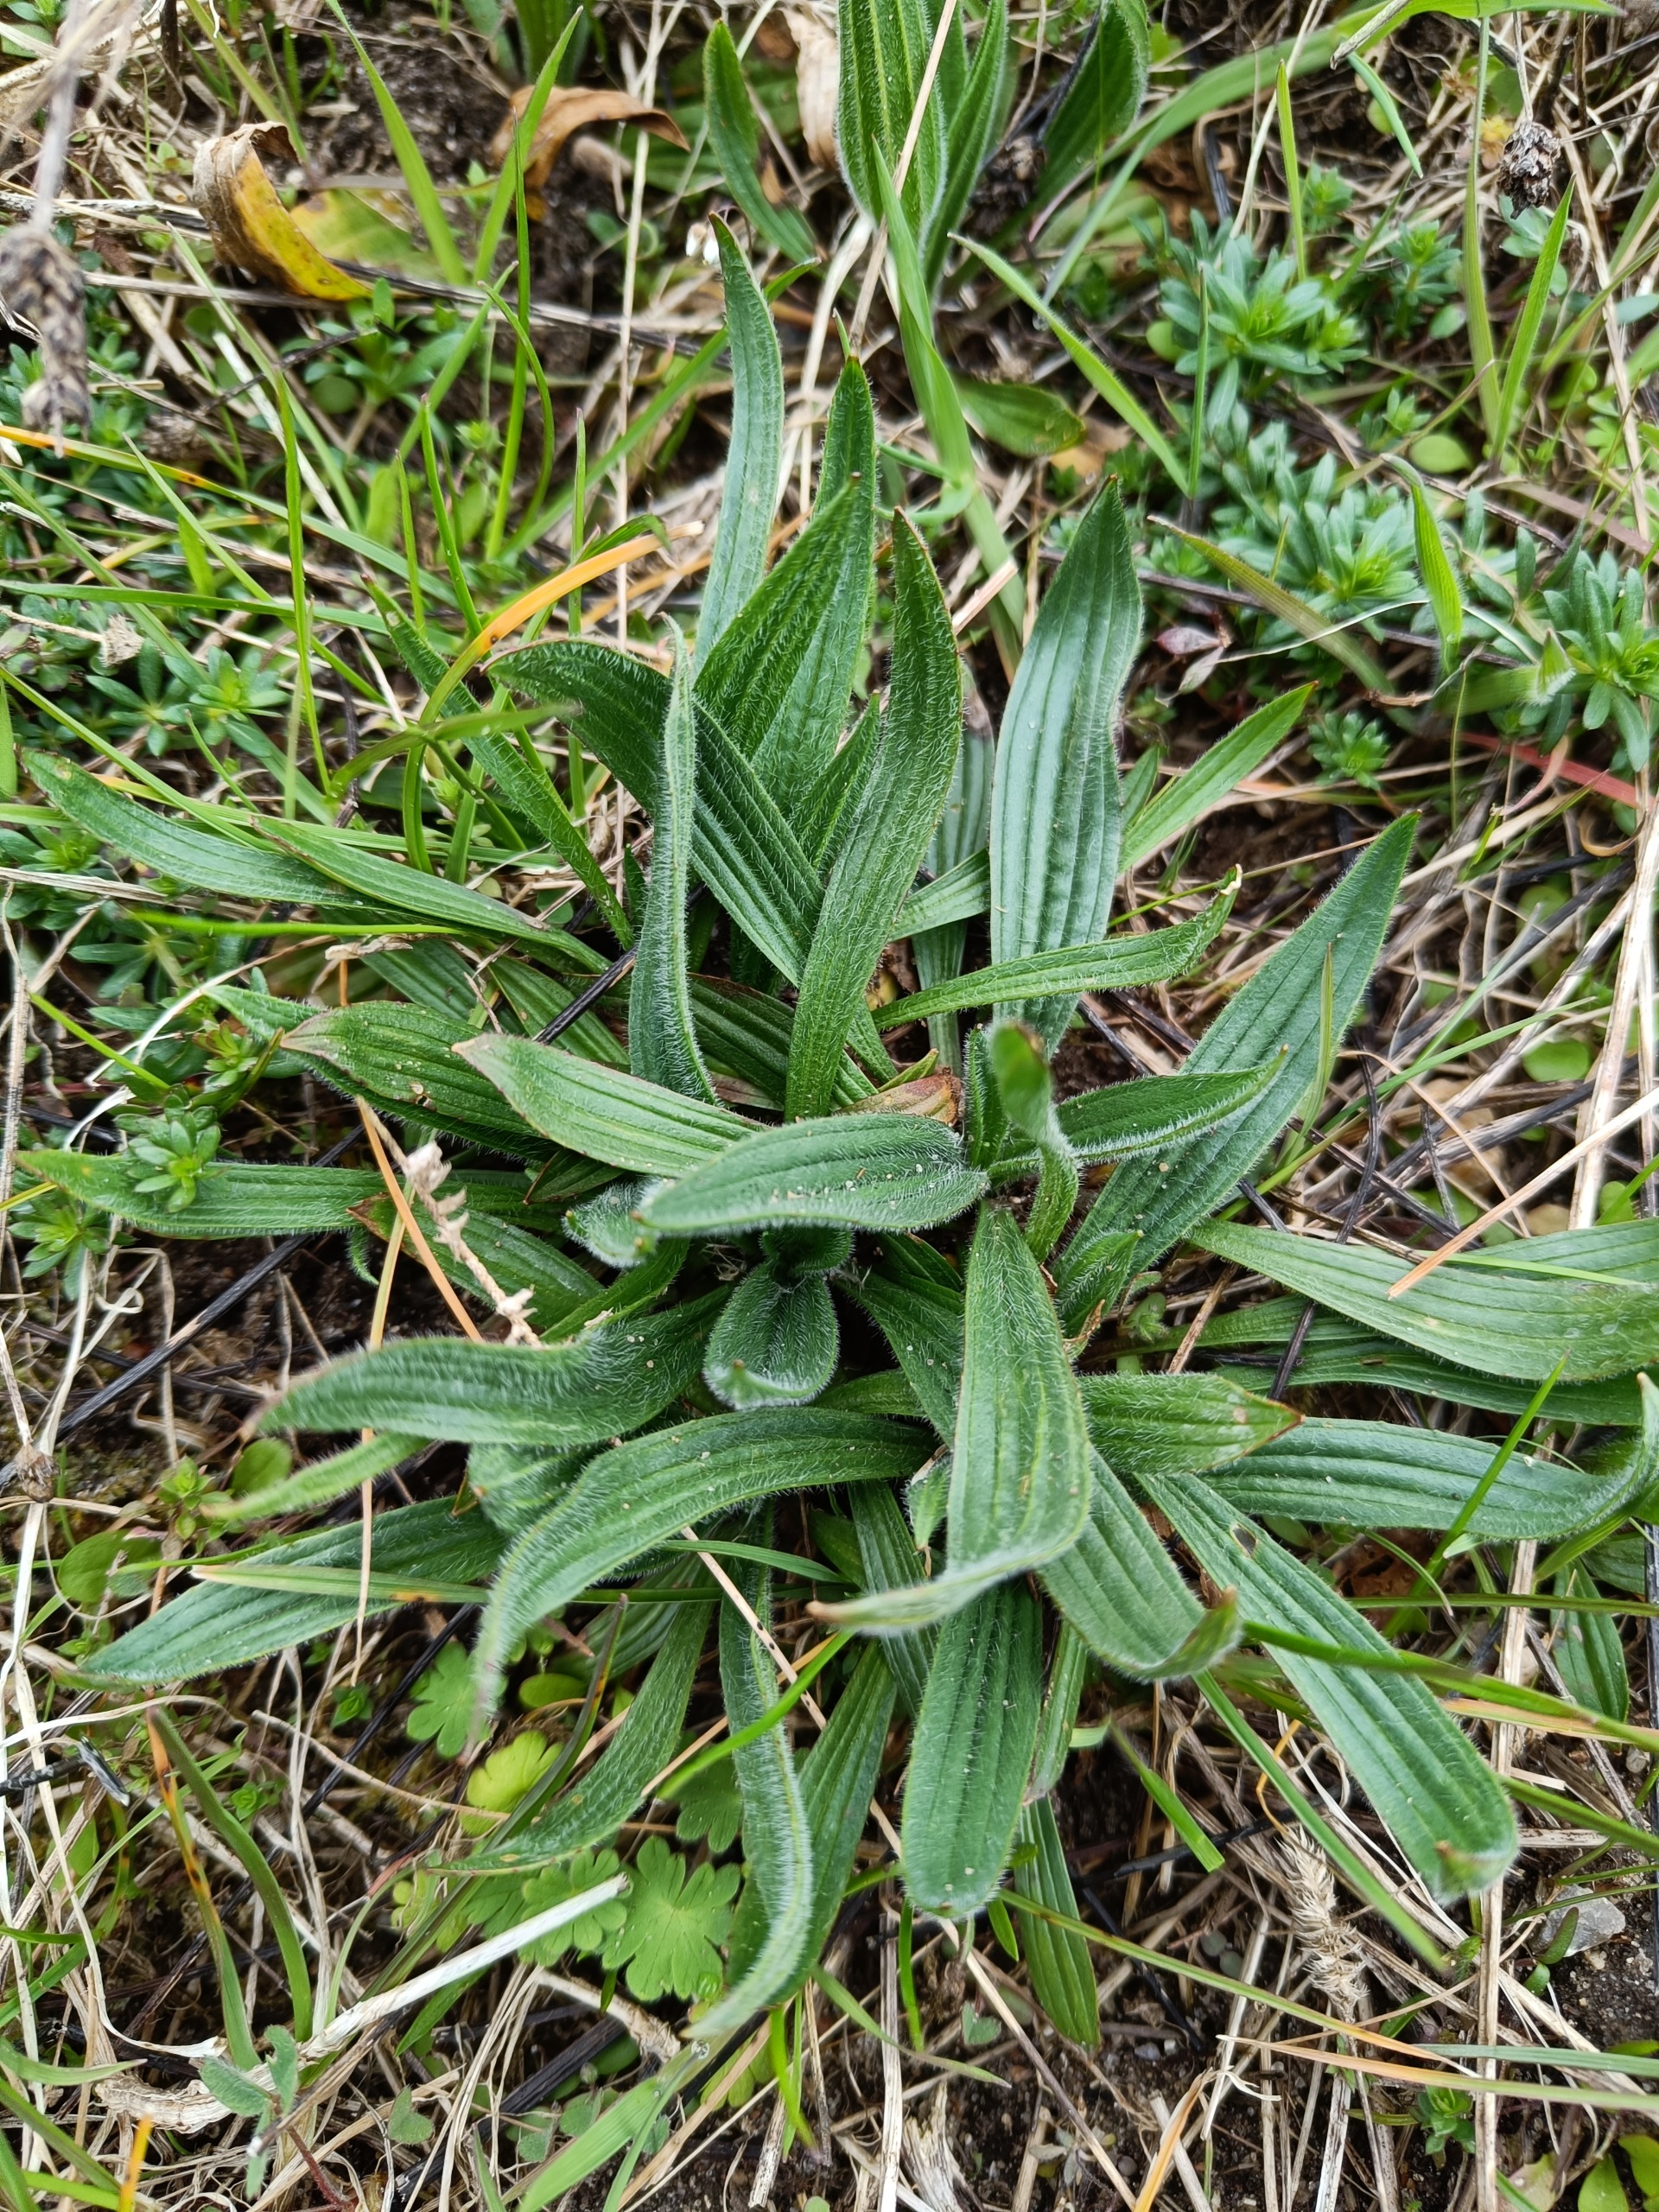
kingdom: Plantae
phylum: Tracheophyta
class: Magnoliopsida
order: Lamiales
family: Plantaginaceae
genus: Plantago
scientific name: Plantago lanceolata
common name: Lancet-vejbred
